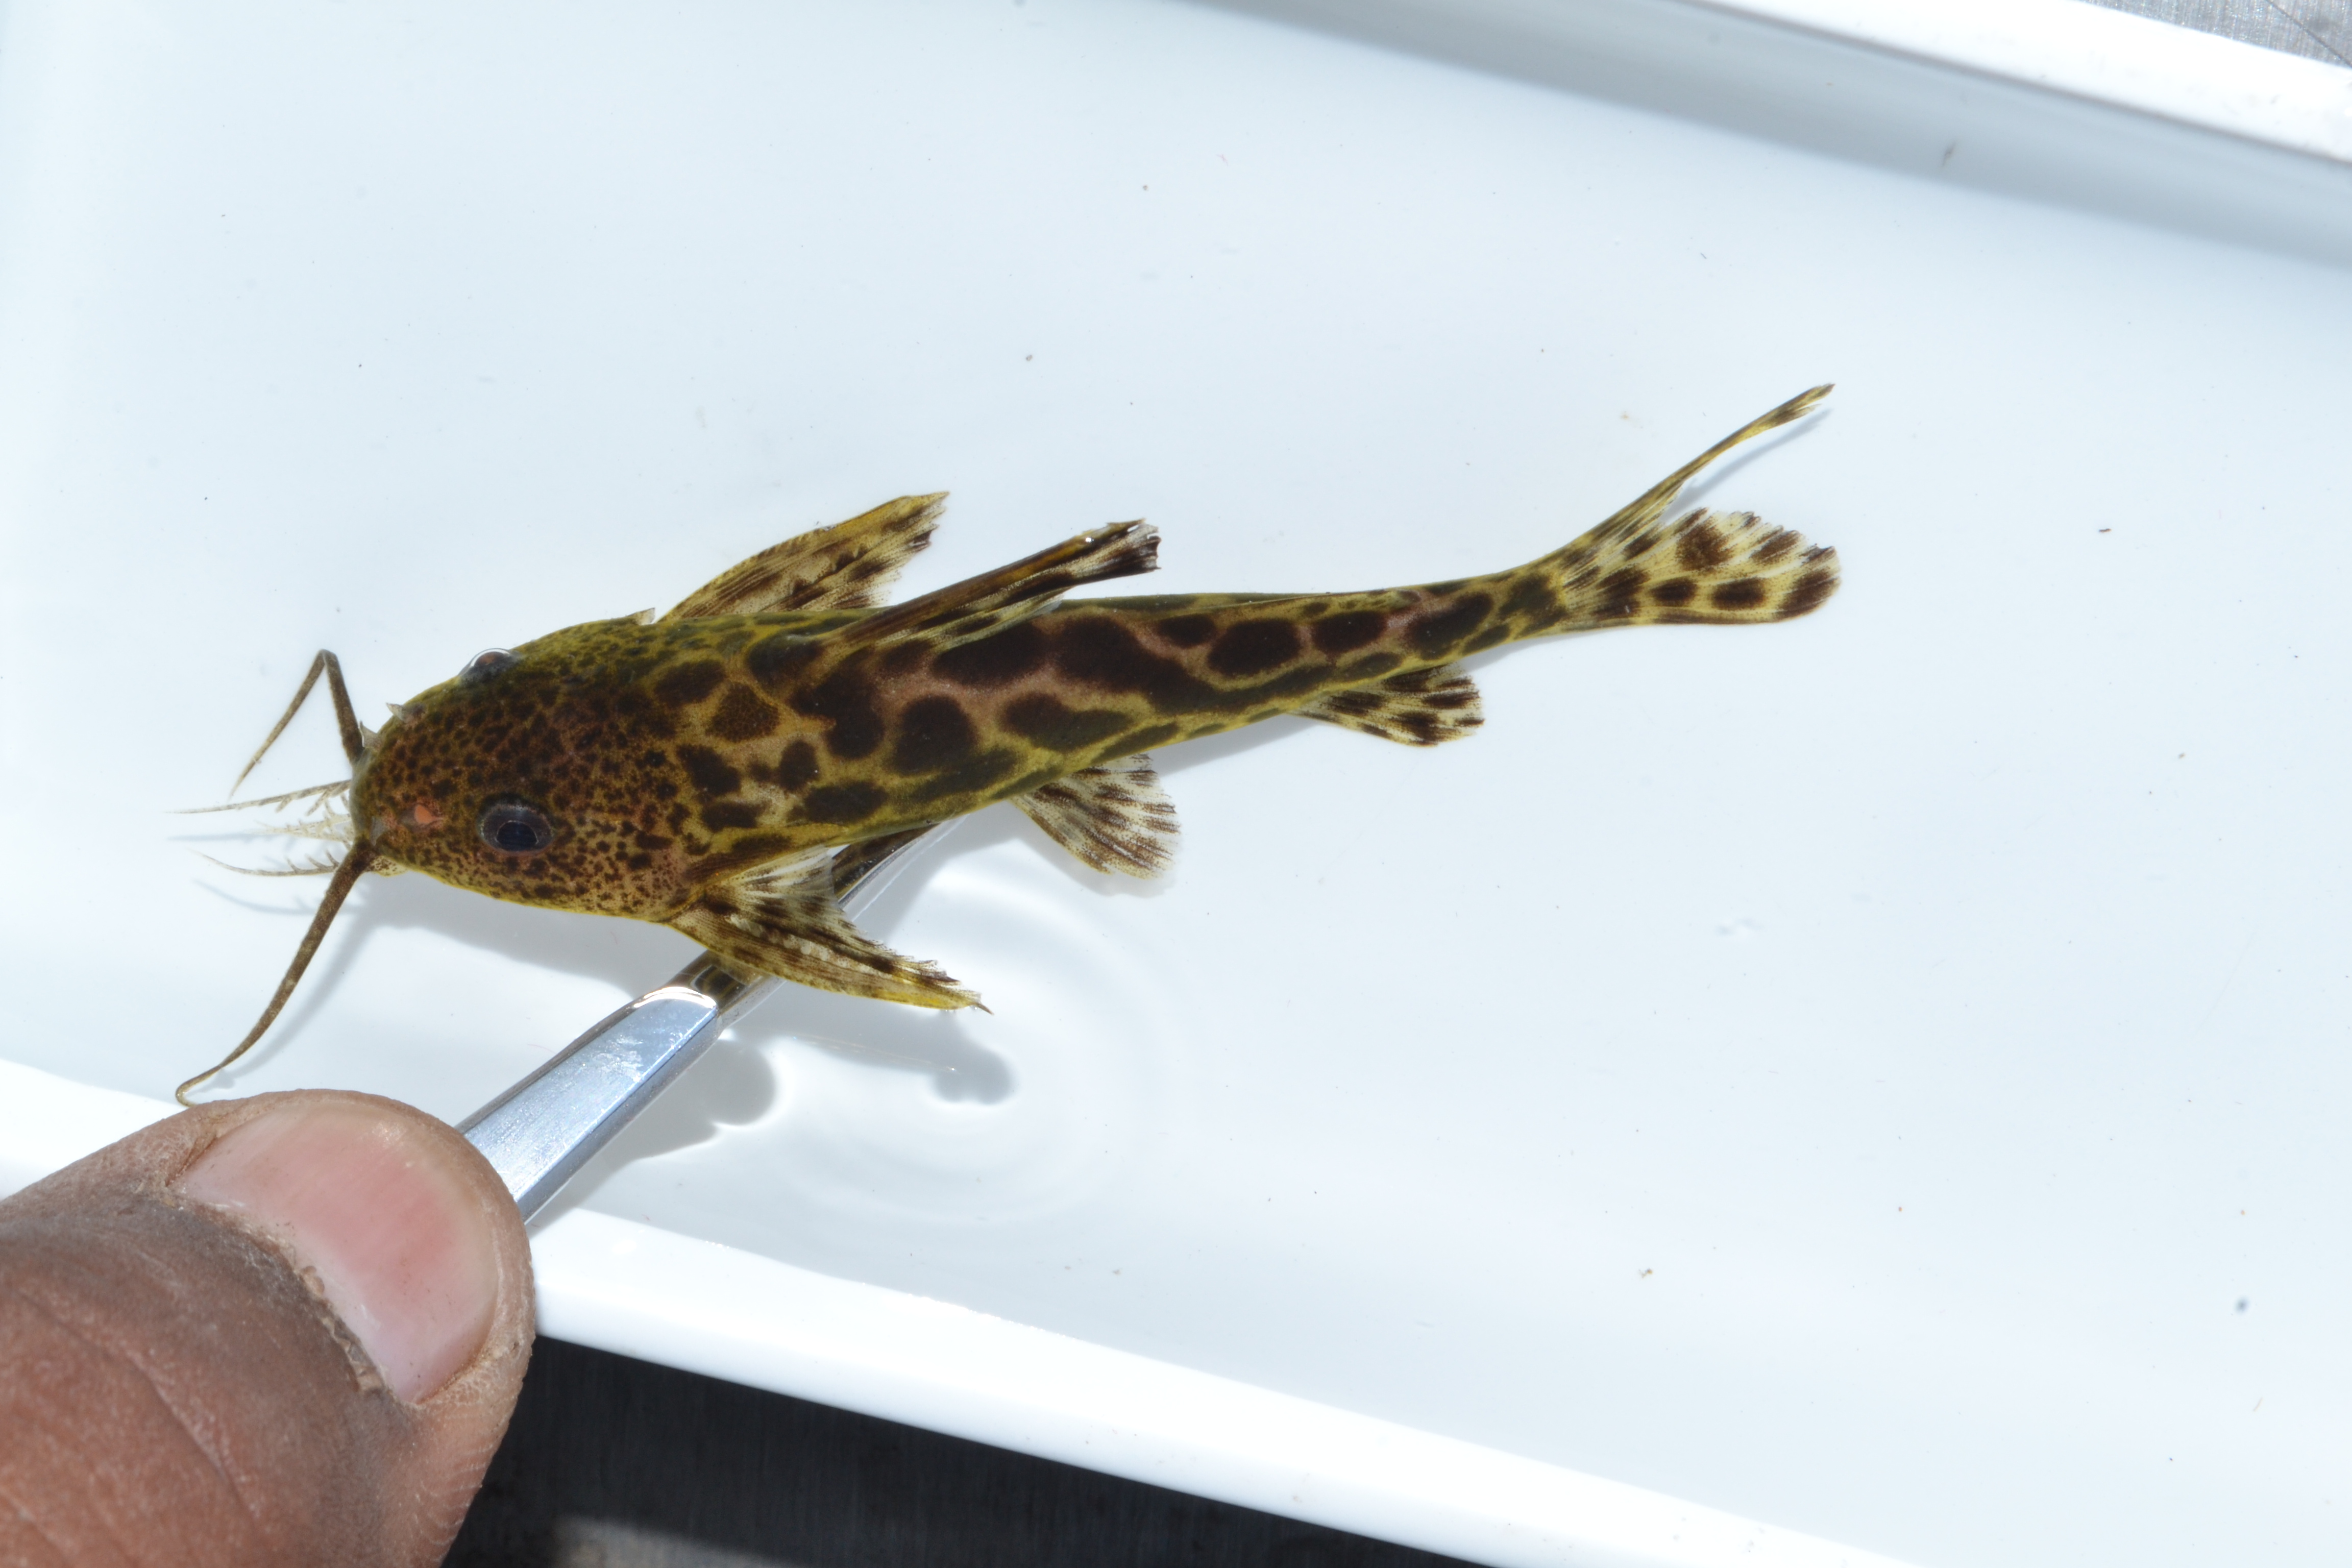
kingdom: Animalia
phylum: Chordata
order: Siluriformes
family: Mochokidae
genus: Synodontis
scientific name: Synodontis macrostigma
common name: Largespot squeaker
